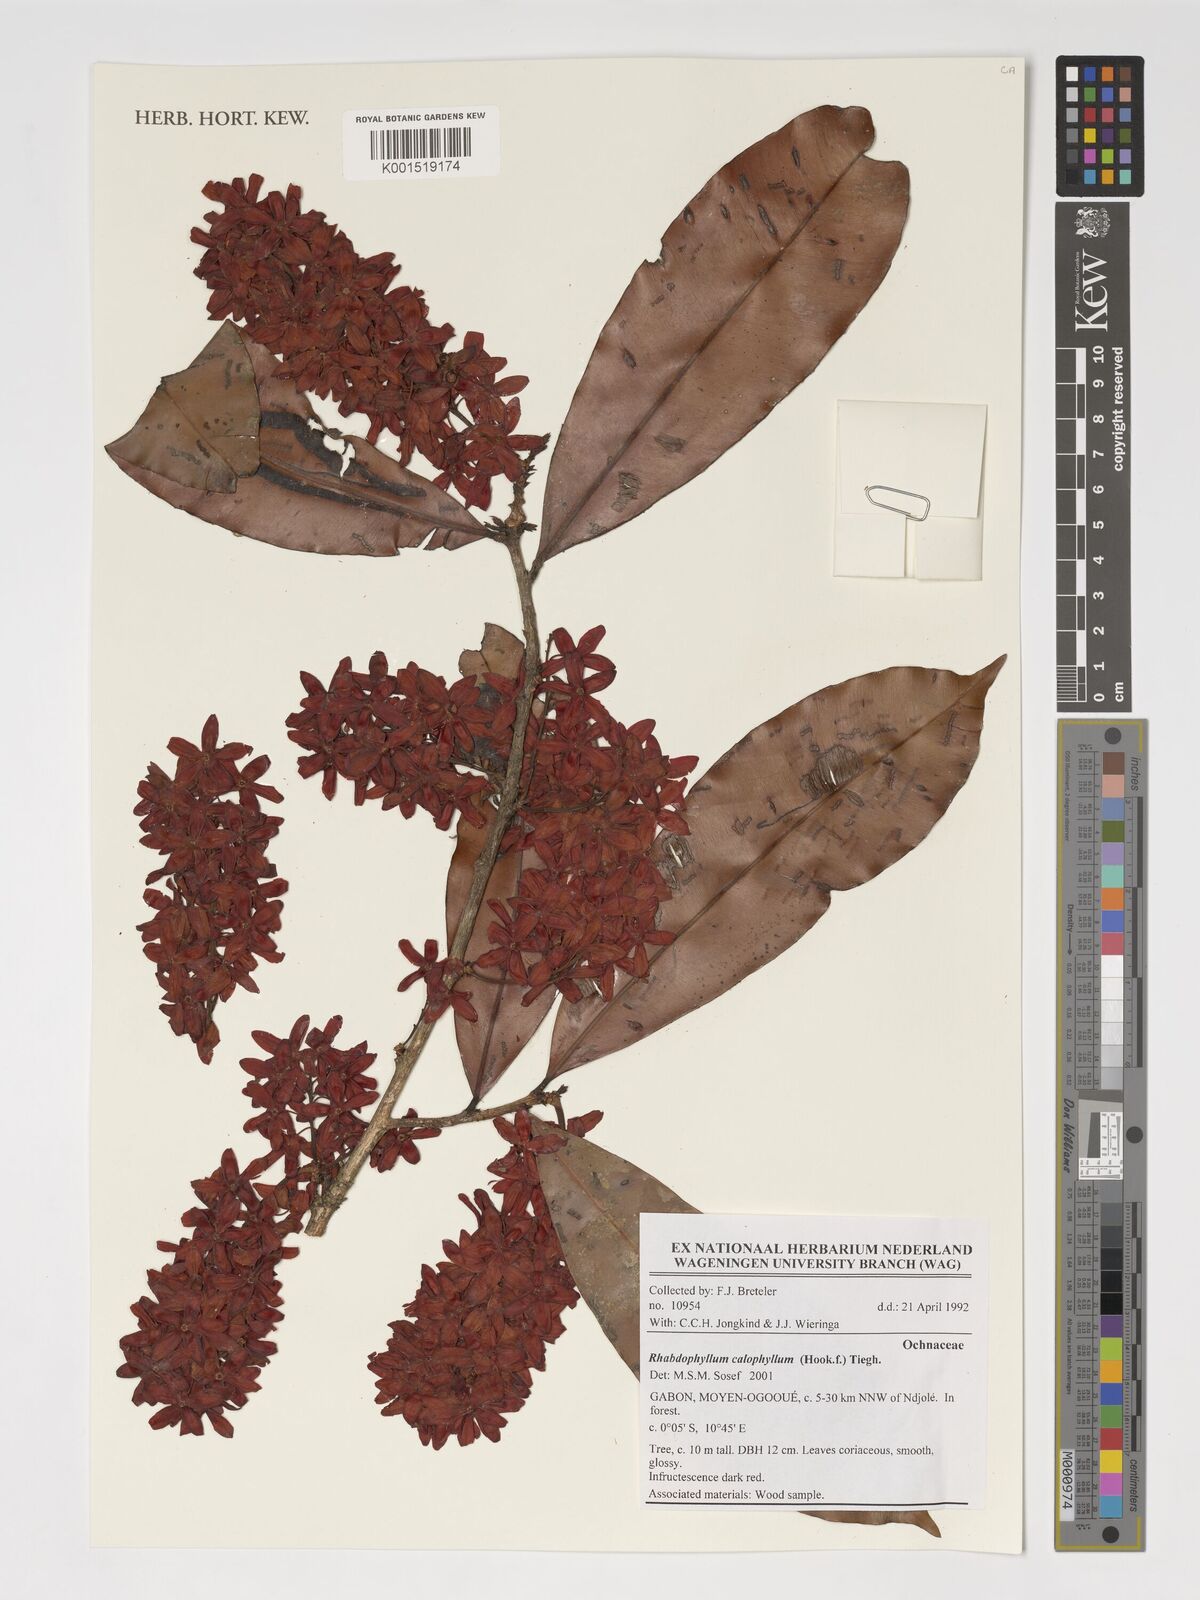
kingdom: Plantae
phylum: Tracheophyta
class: Magnoliopsida
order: Malpighiales
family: Ochnaceae
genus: Rhabdophyllum
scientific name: Rhabdophyllum calophyllum
